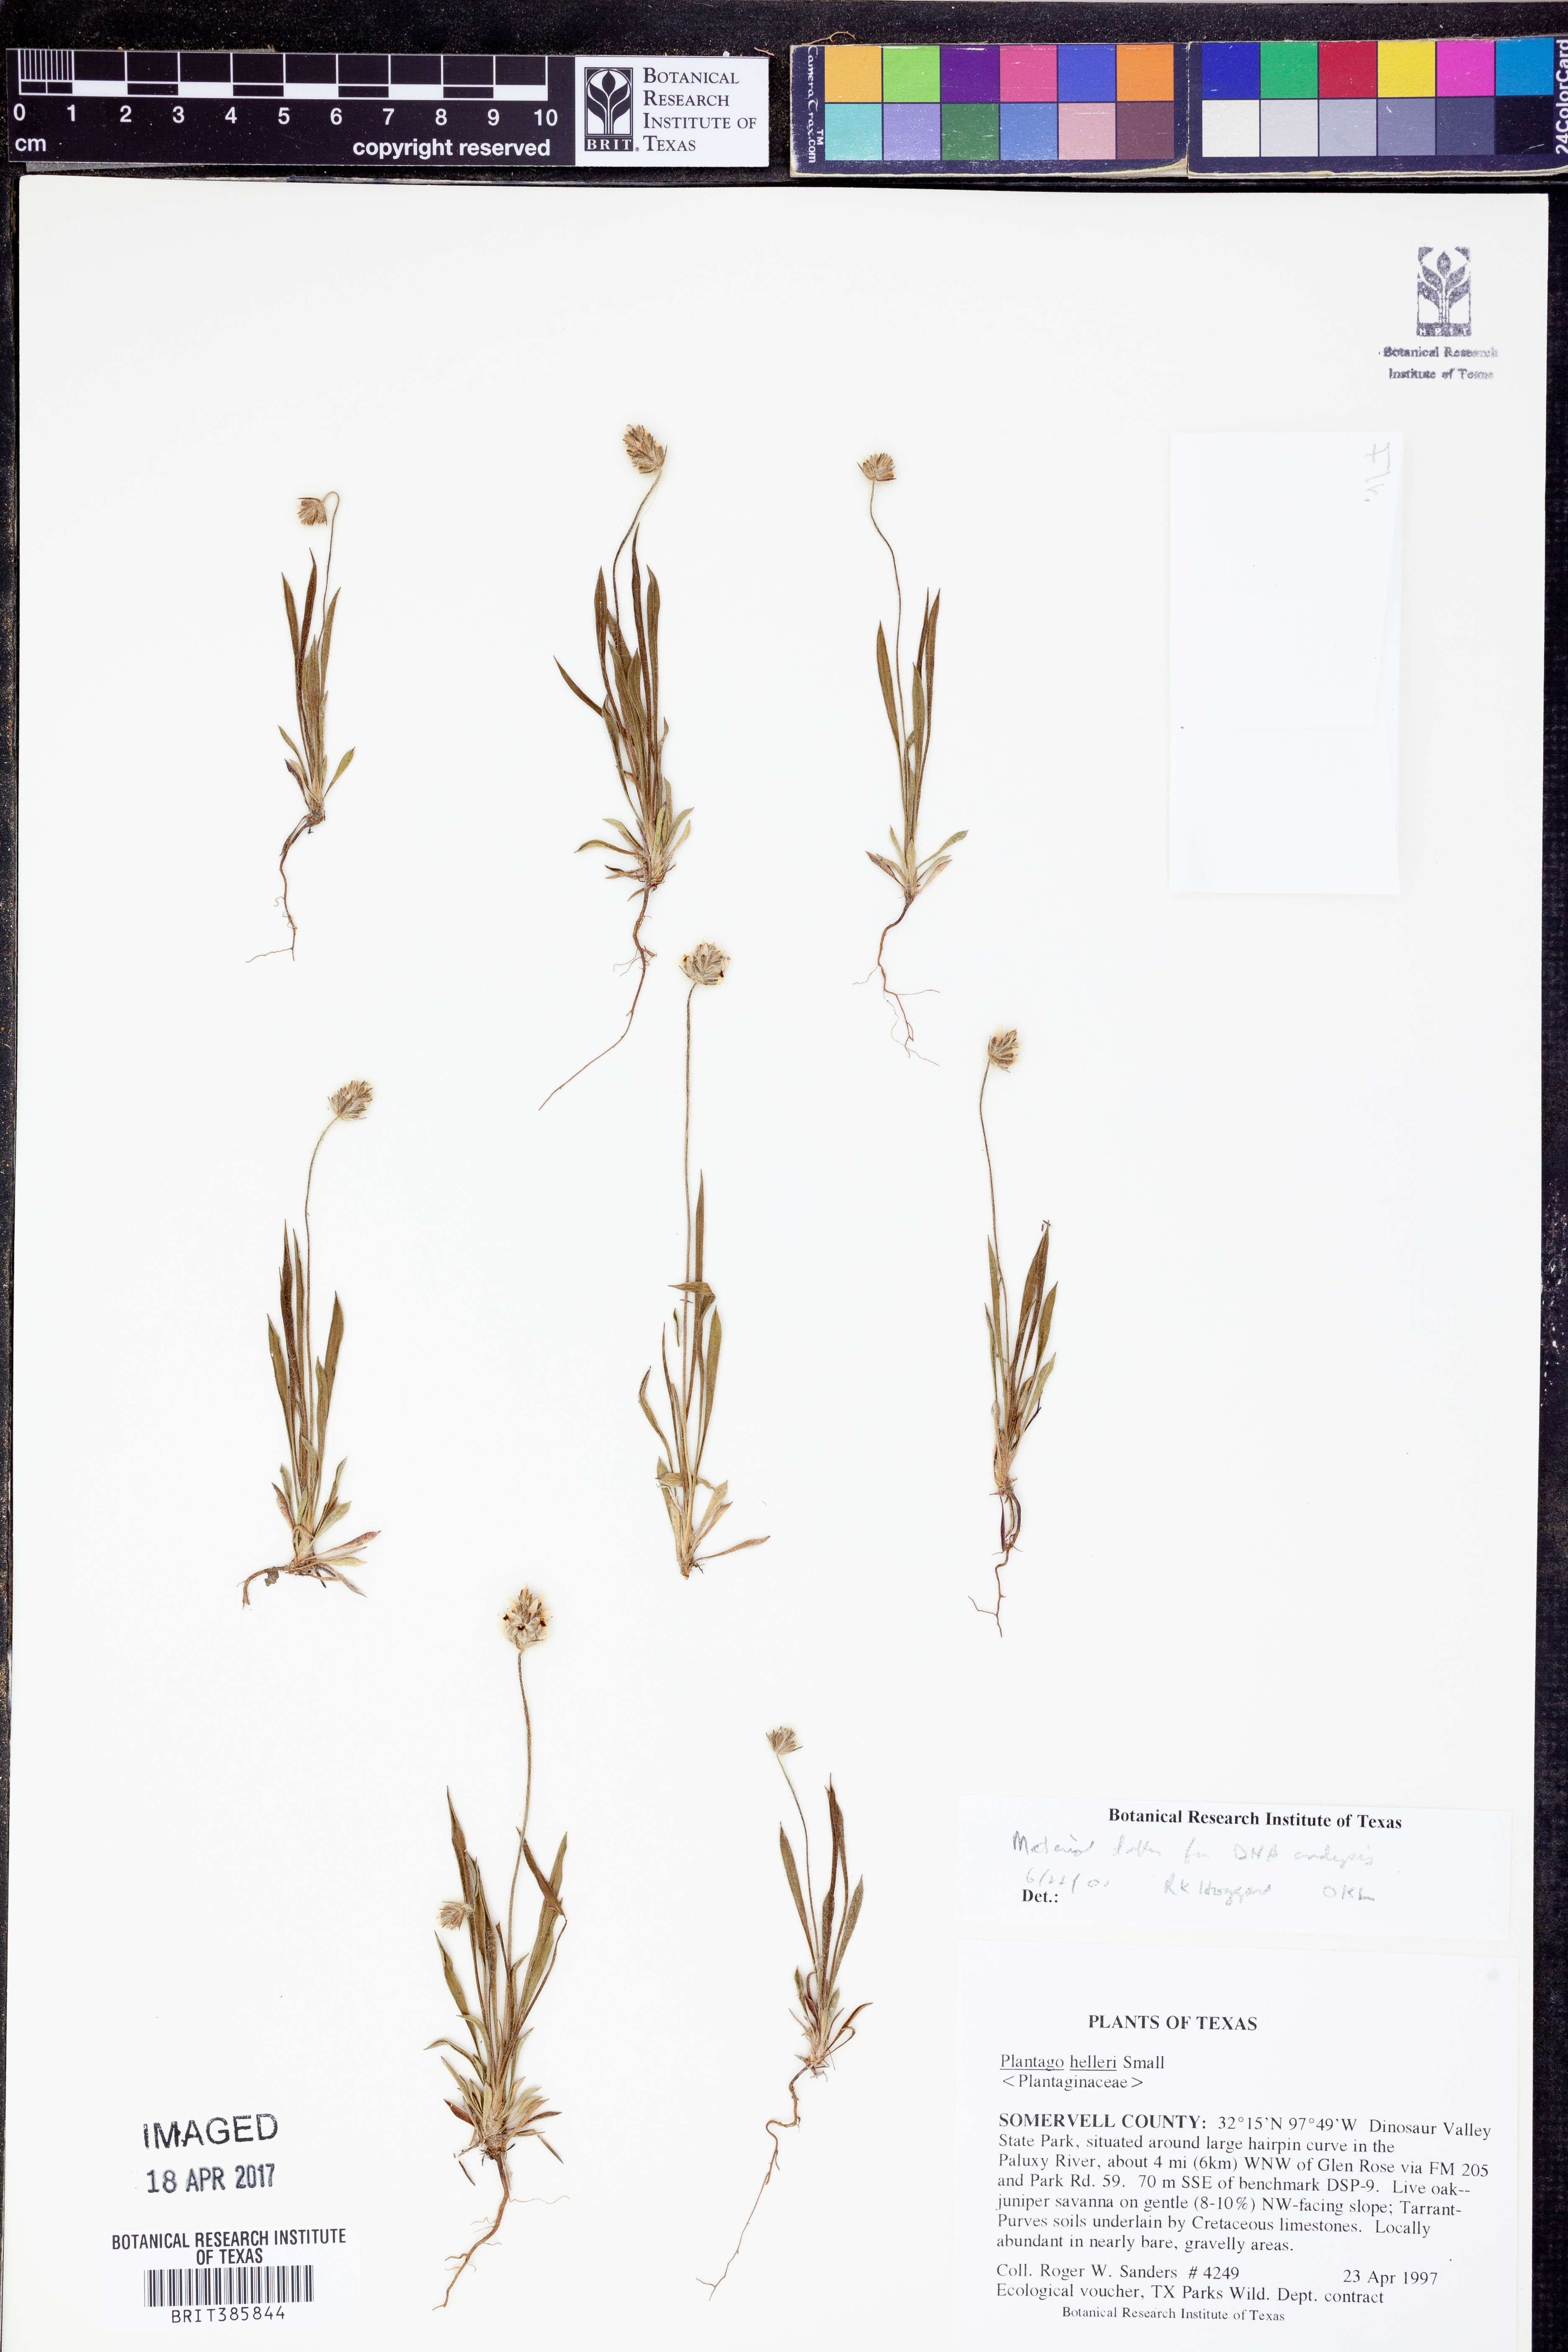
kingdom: Plantae
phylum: Tracheophyta
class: Magnoliopsida
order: Lamiales
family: Plantaginaceae
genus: Plantago
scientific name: Plantago helleri
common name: Heller's plantain
